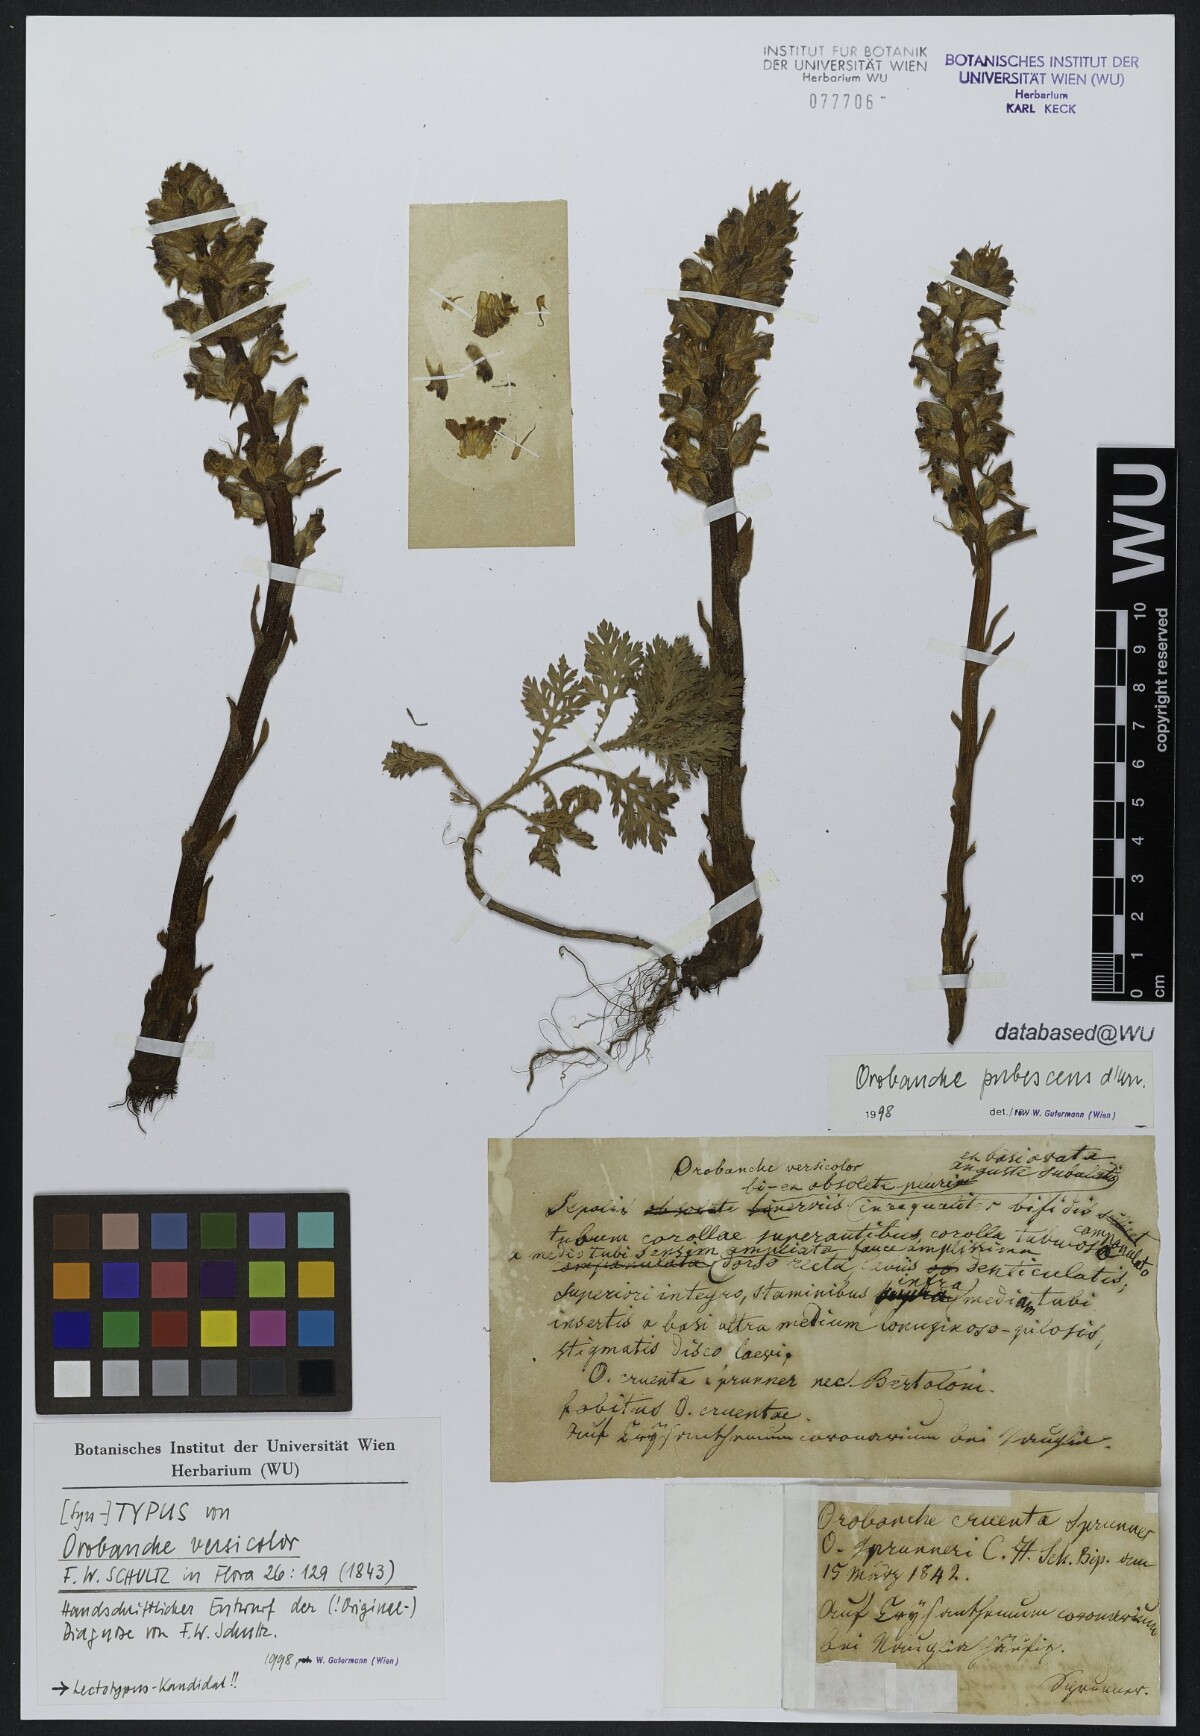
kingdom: Plantae
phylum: Tracheophyta
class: Magnoliopsida
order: Lamiales
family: Orobanchaceae
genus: Orobanche
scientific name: Orobanche pubescens
